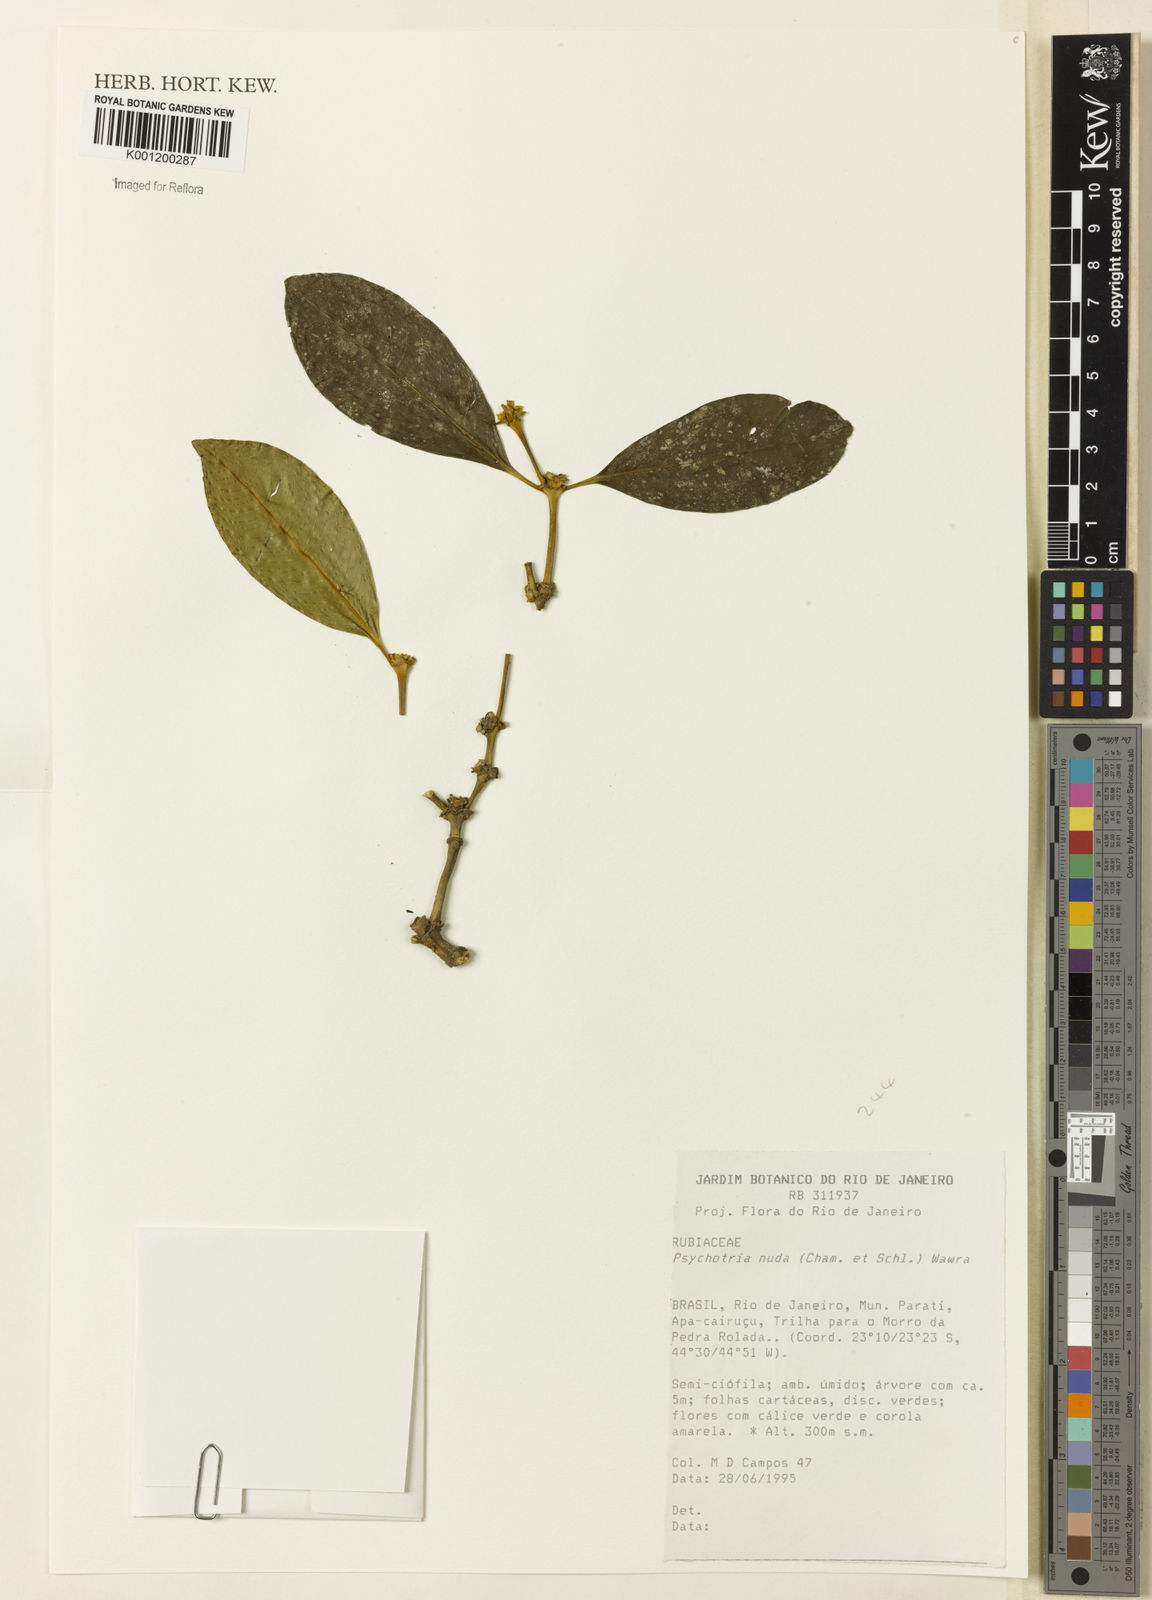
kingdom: Plantae
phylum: Tracheophyta
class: Magnoliopsida
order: Gentianales
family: Rubiaceae
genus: Psychotria
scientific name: Psychotria nuda
